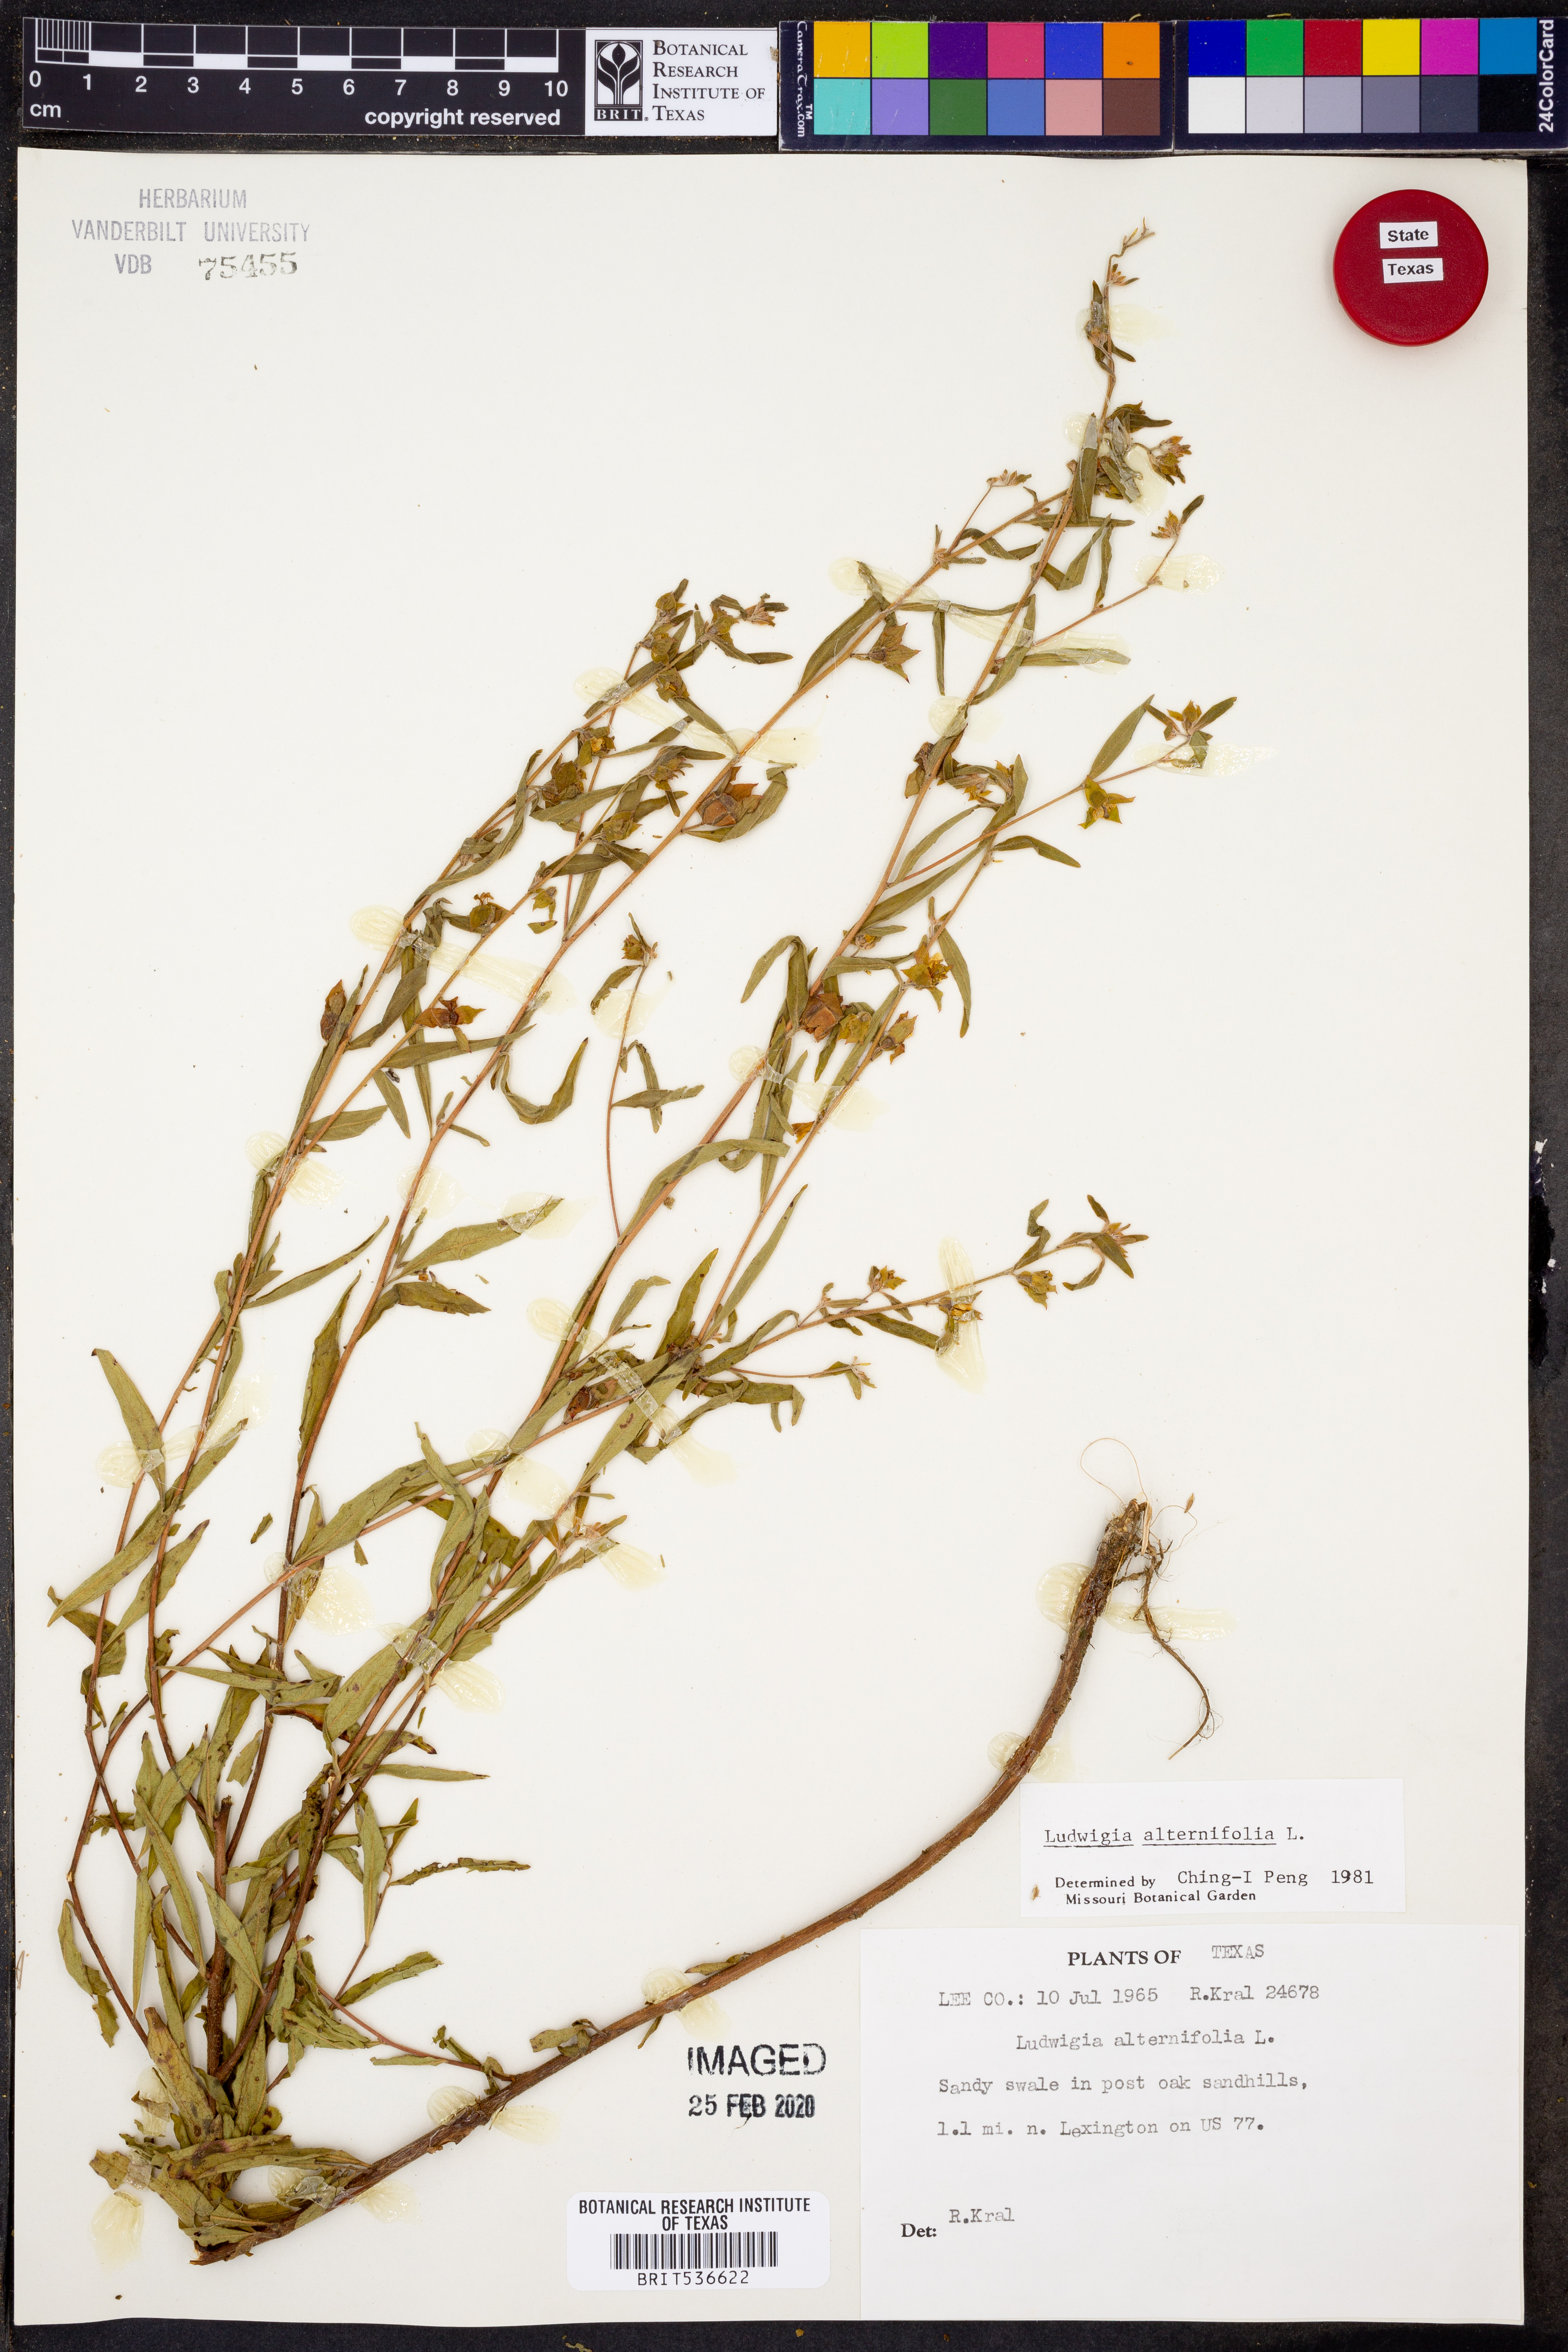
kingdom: Plantae
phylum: Tracheophyta
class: Magnoliopsida
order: Myrtales
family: Onagraceae
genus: Ludwigia
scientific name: Ludwigia alternifolia
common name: Rattlebox
